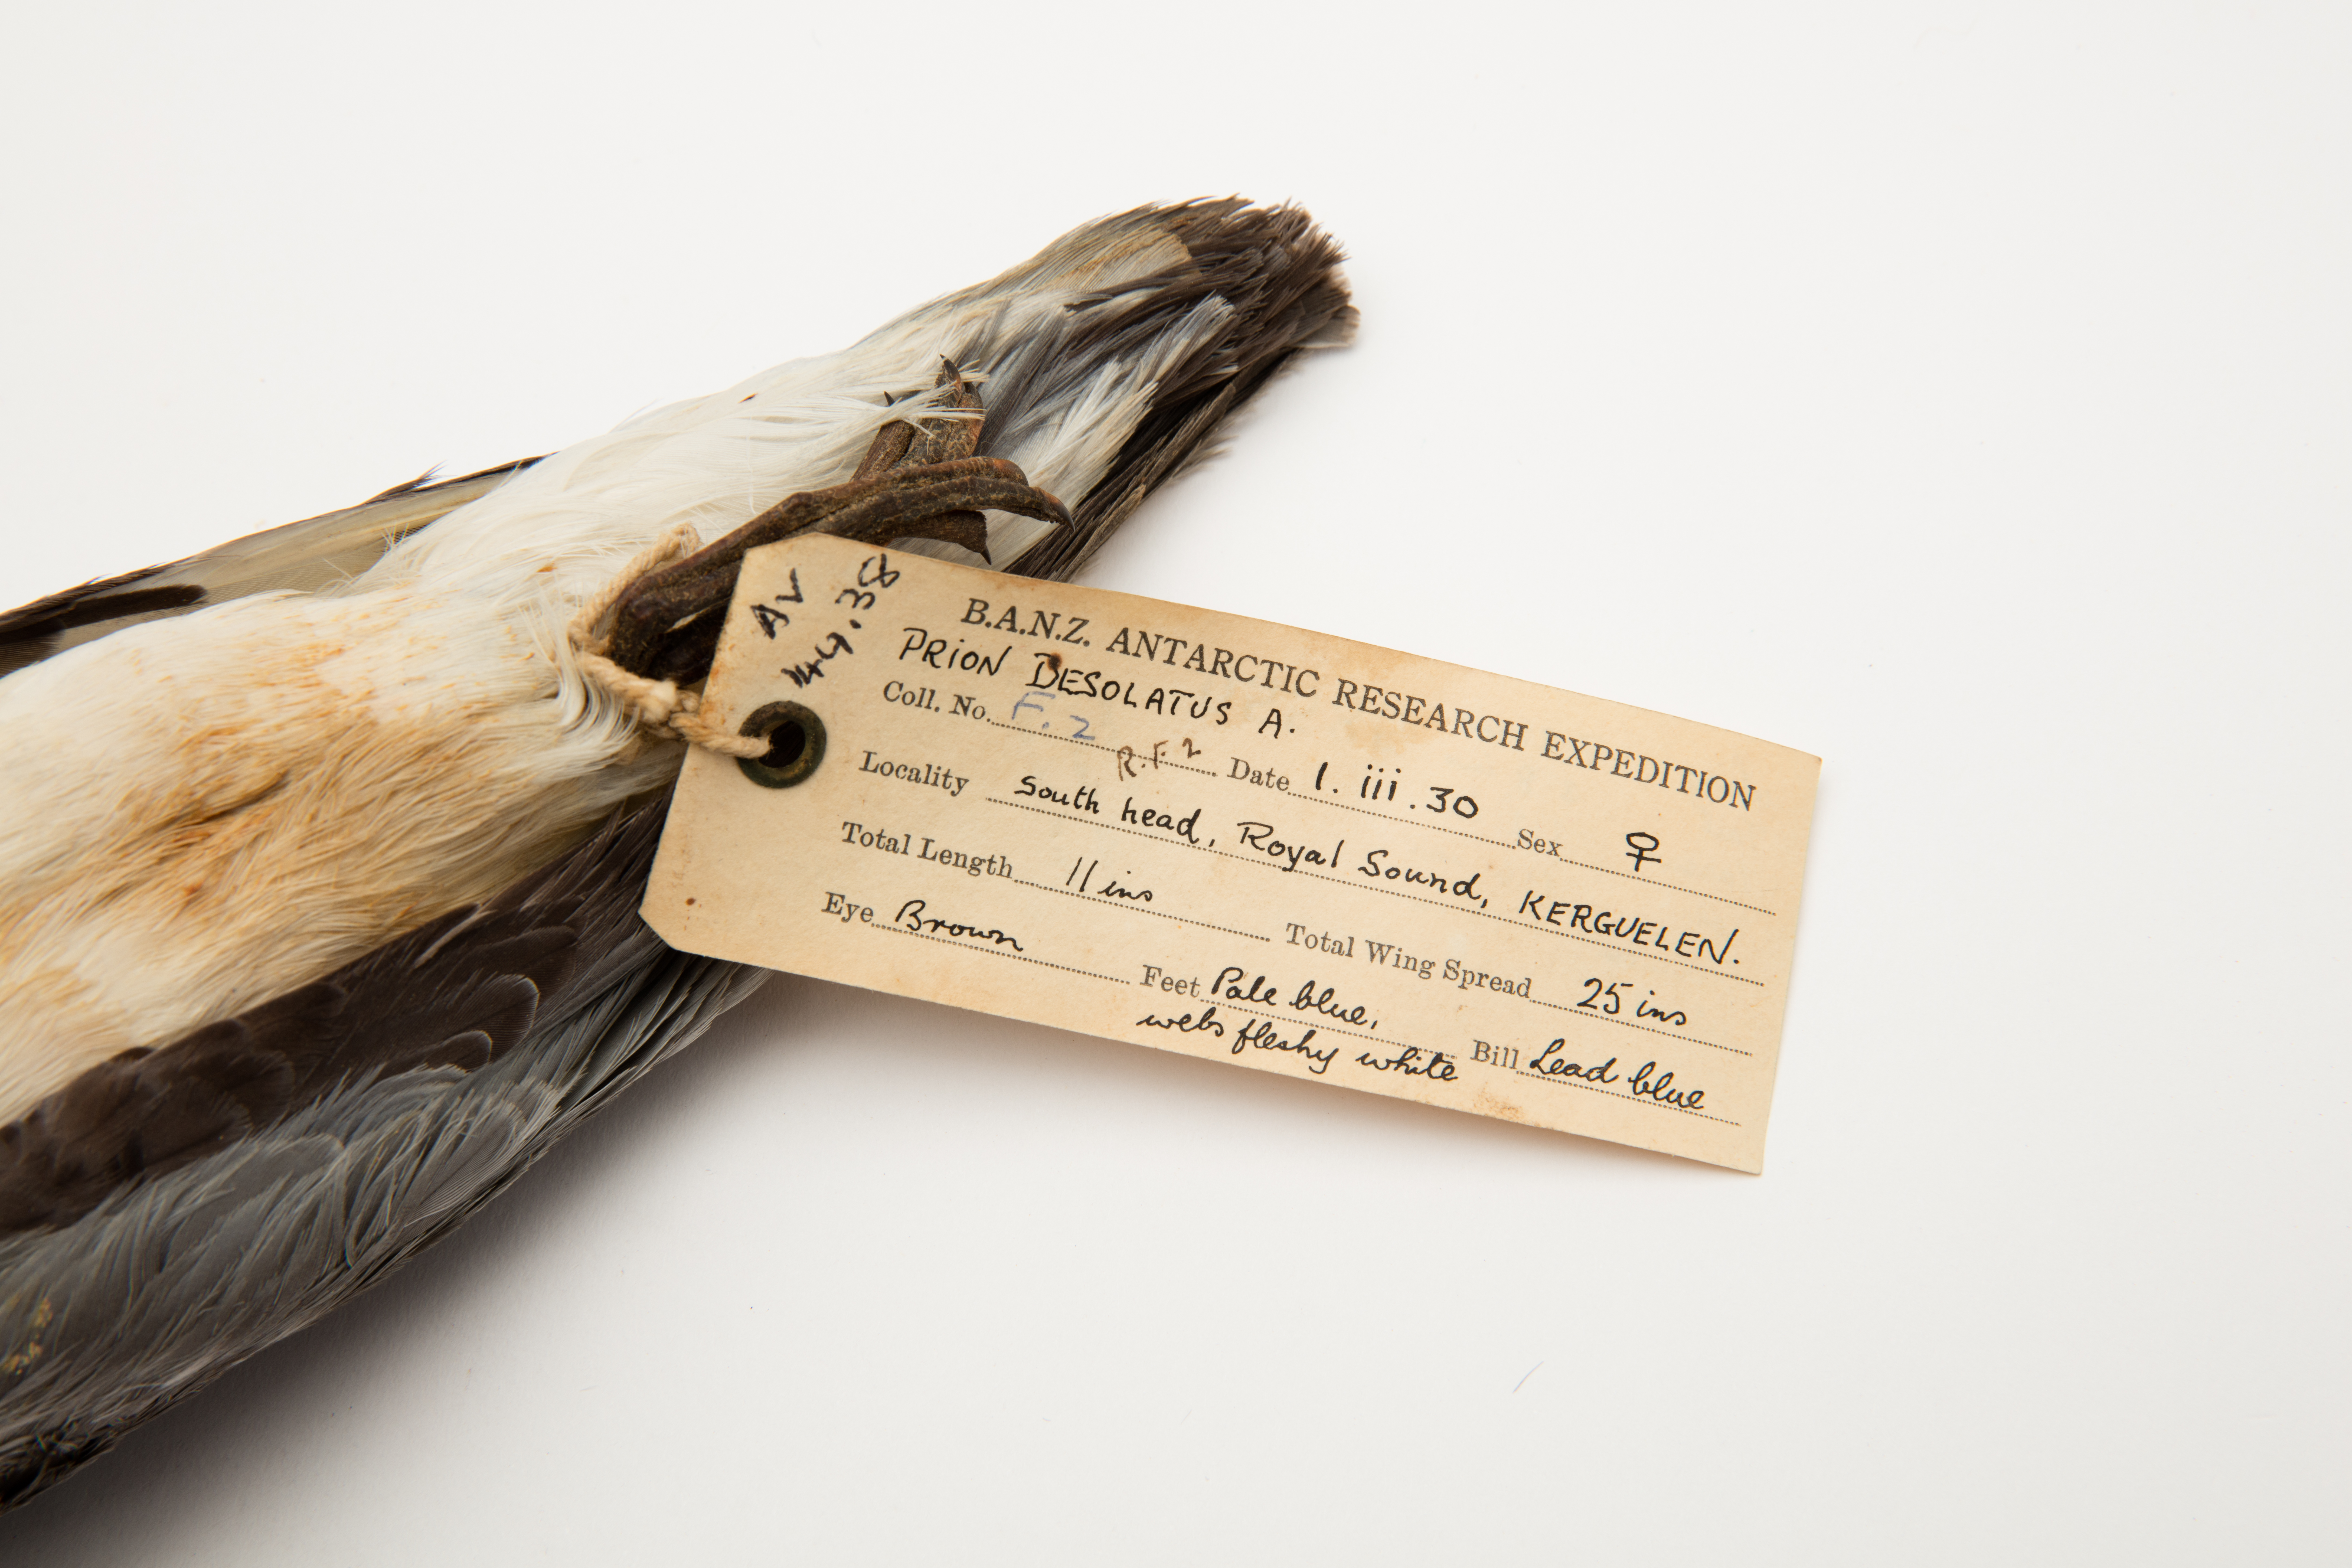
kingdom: Animalia
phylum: Chordata
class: Aves
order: Procellariiformes
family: Procellariidae
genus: Pachyptila
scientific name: Pachyptila desolata
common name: Antarctic prion
